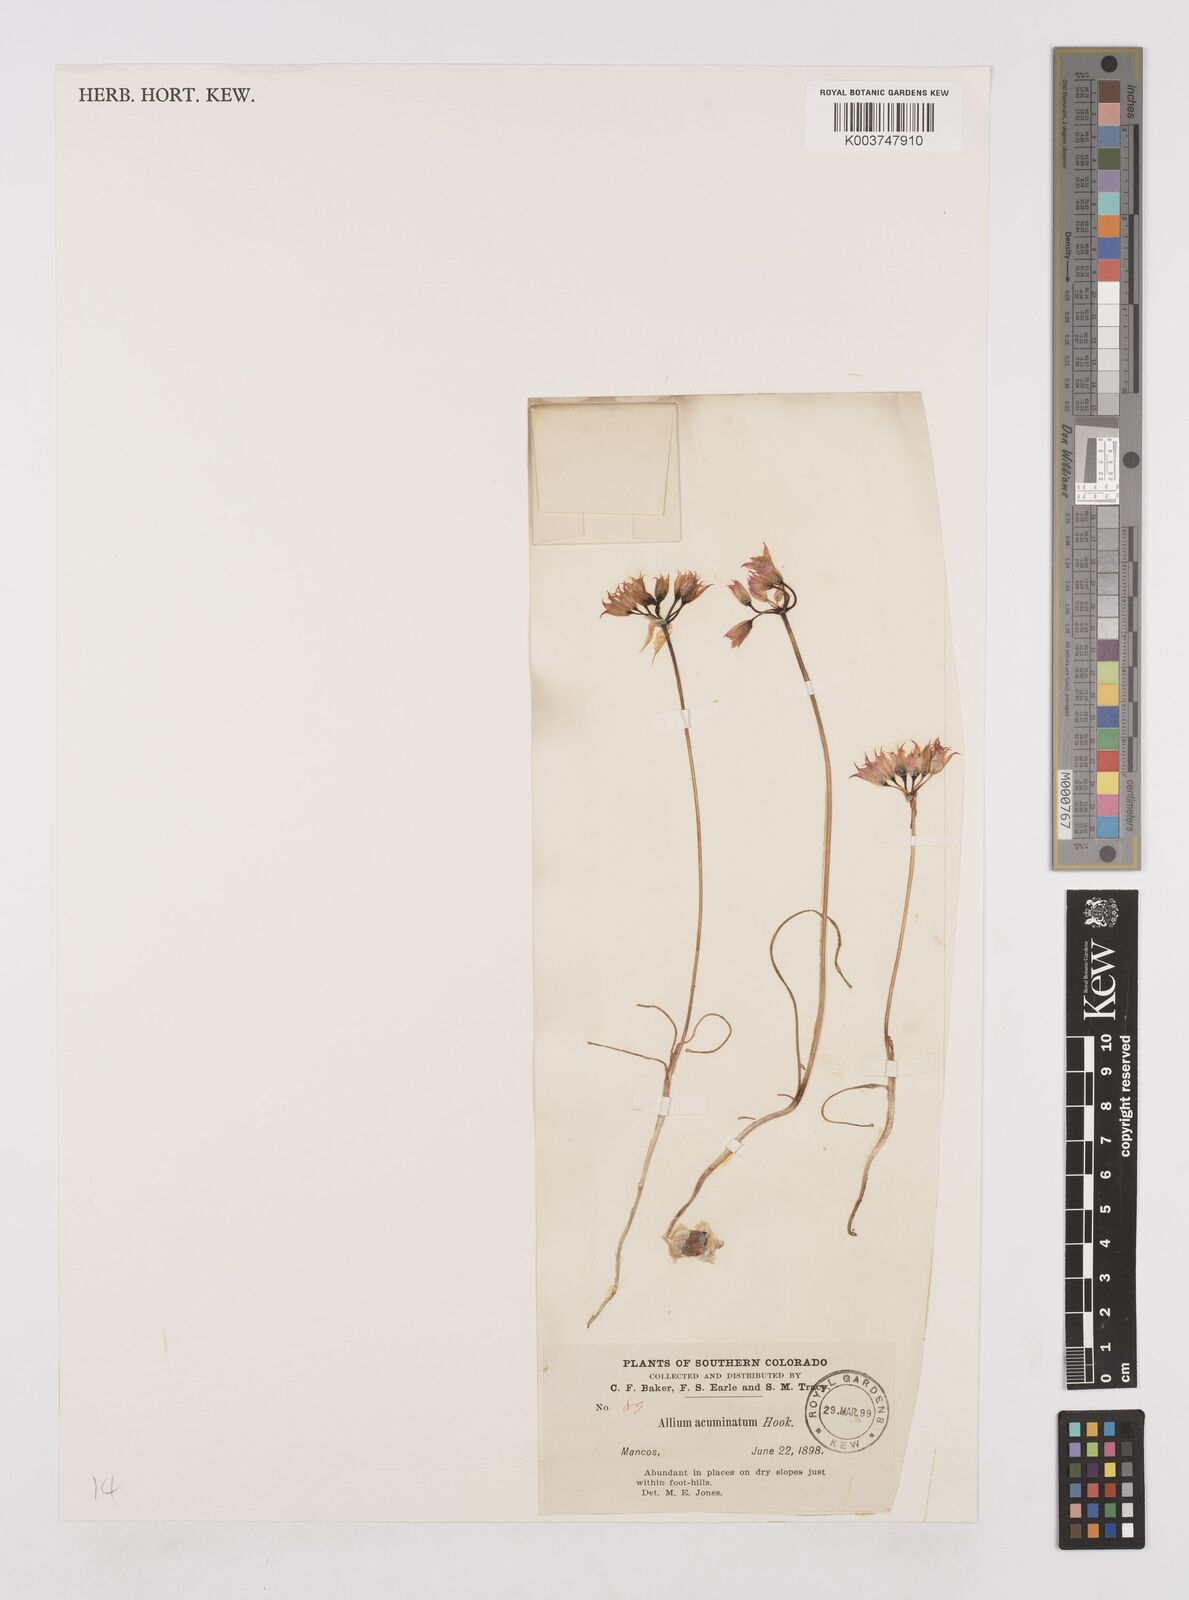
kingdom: Plantae
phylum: Tracheophyta
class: Liliopsida
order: Asparagales
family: Amaryllidaceae
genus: Allium
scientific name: Allium acuminatum
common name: Hooker's onion
